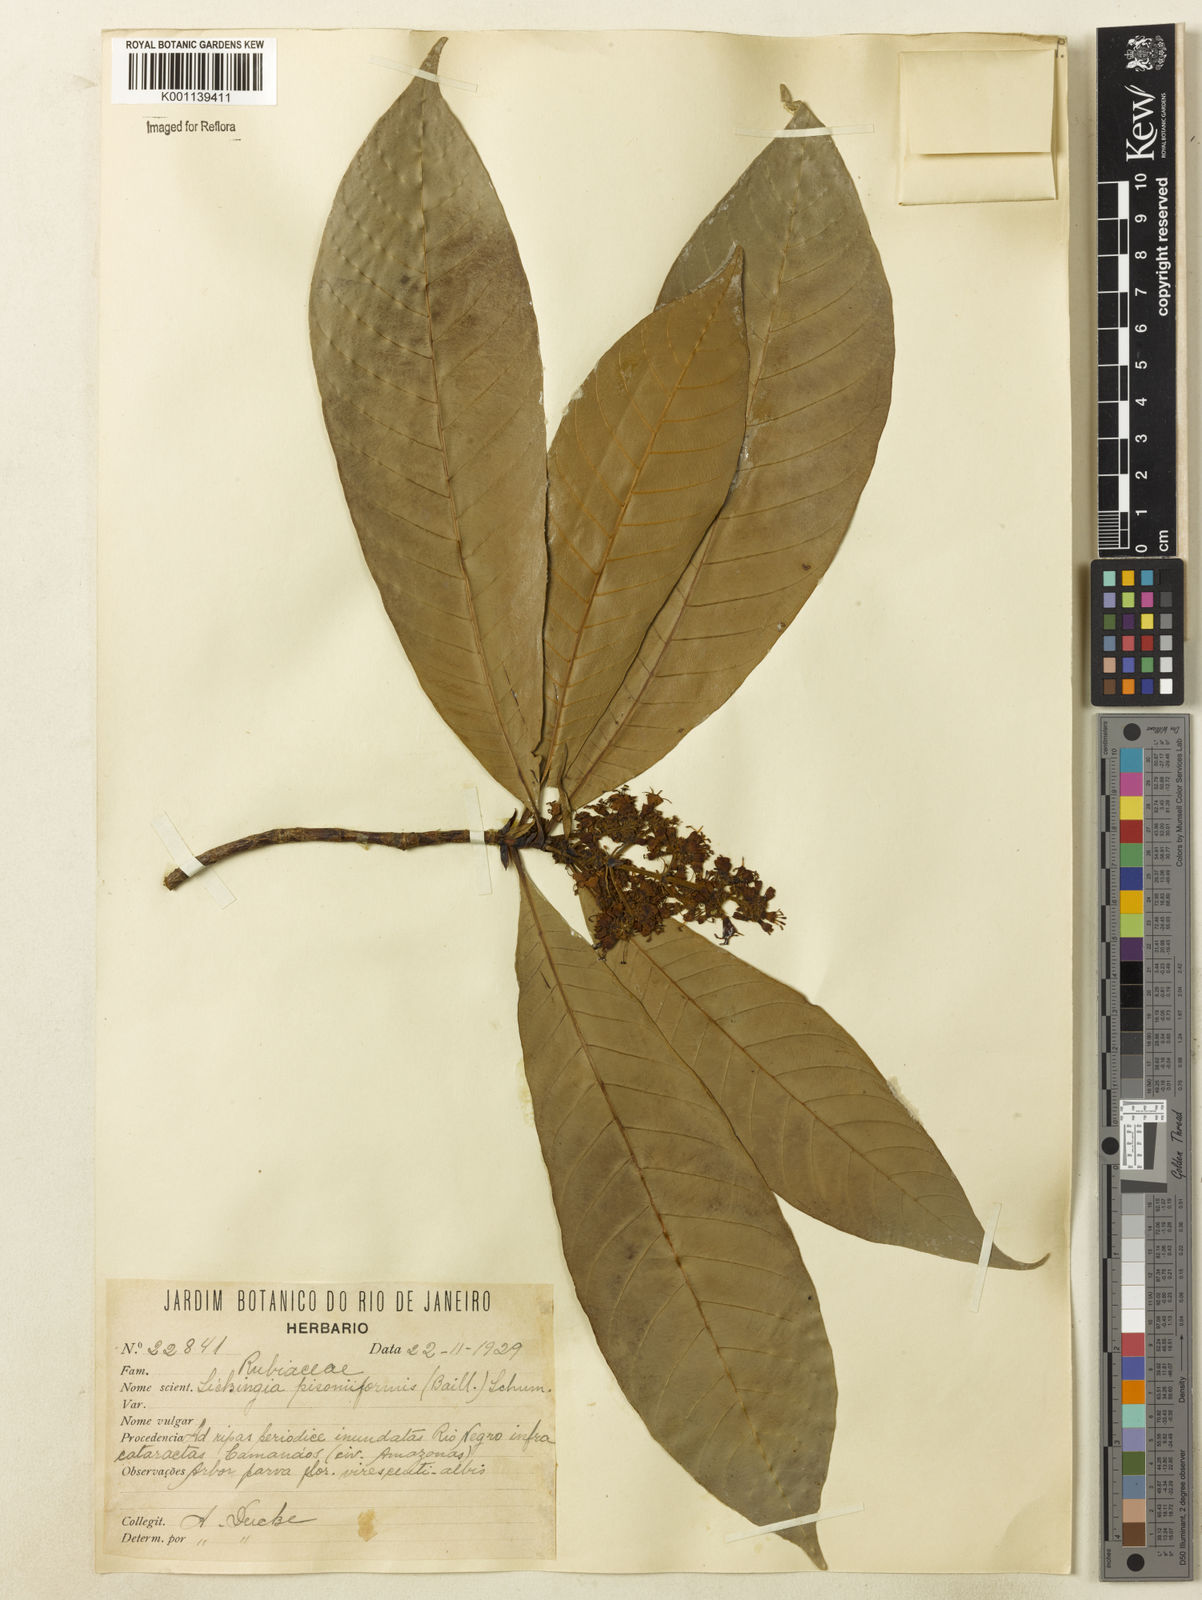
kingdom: Plantae
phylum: Tracheophyta
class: Magnoliopsida
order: Gentianales
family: Rubiaceae
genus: Simira
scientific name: Simira podocarpa
